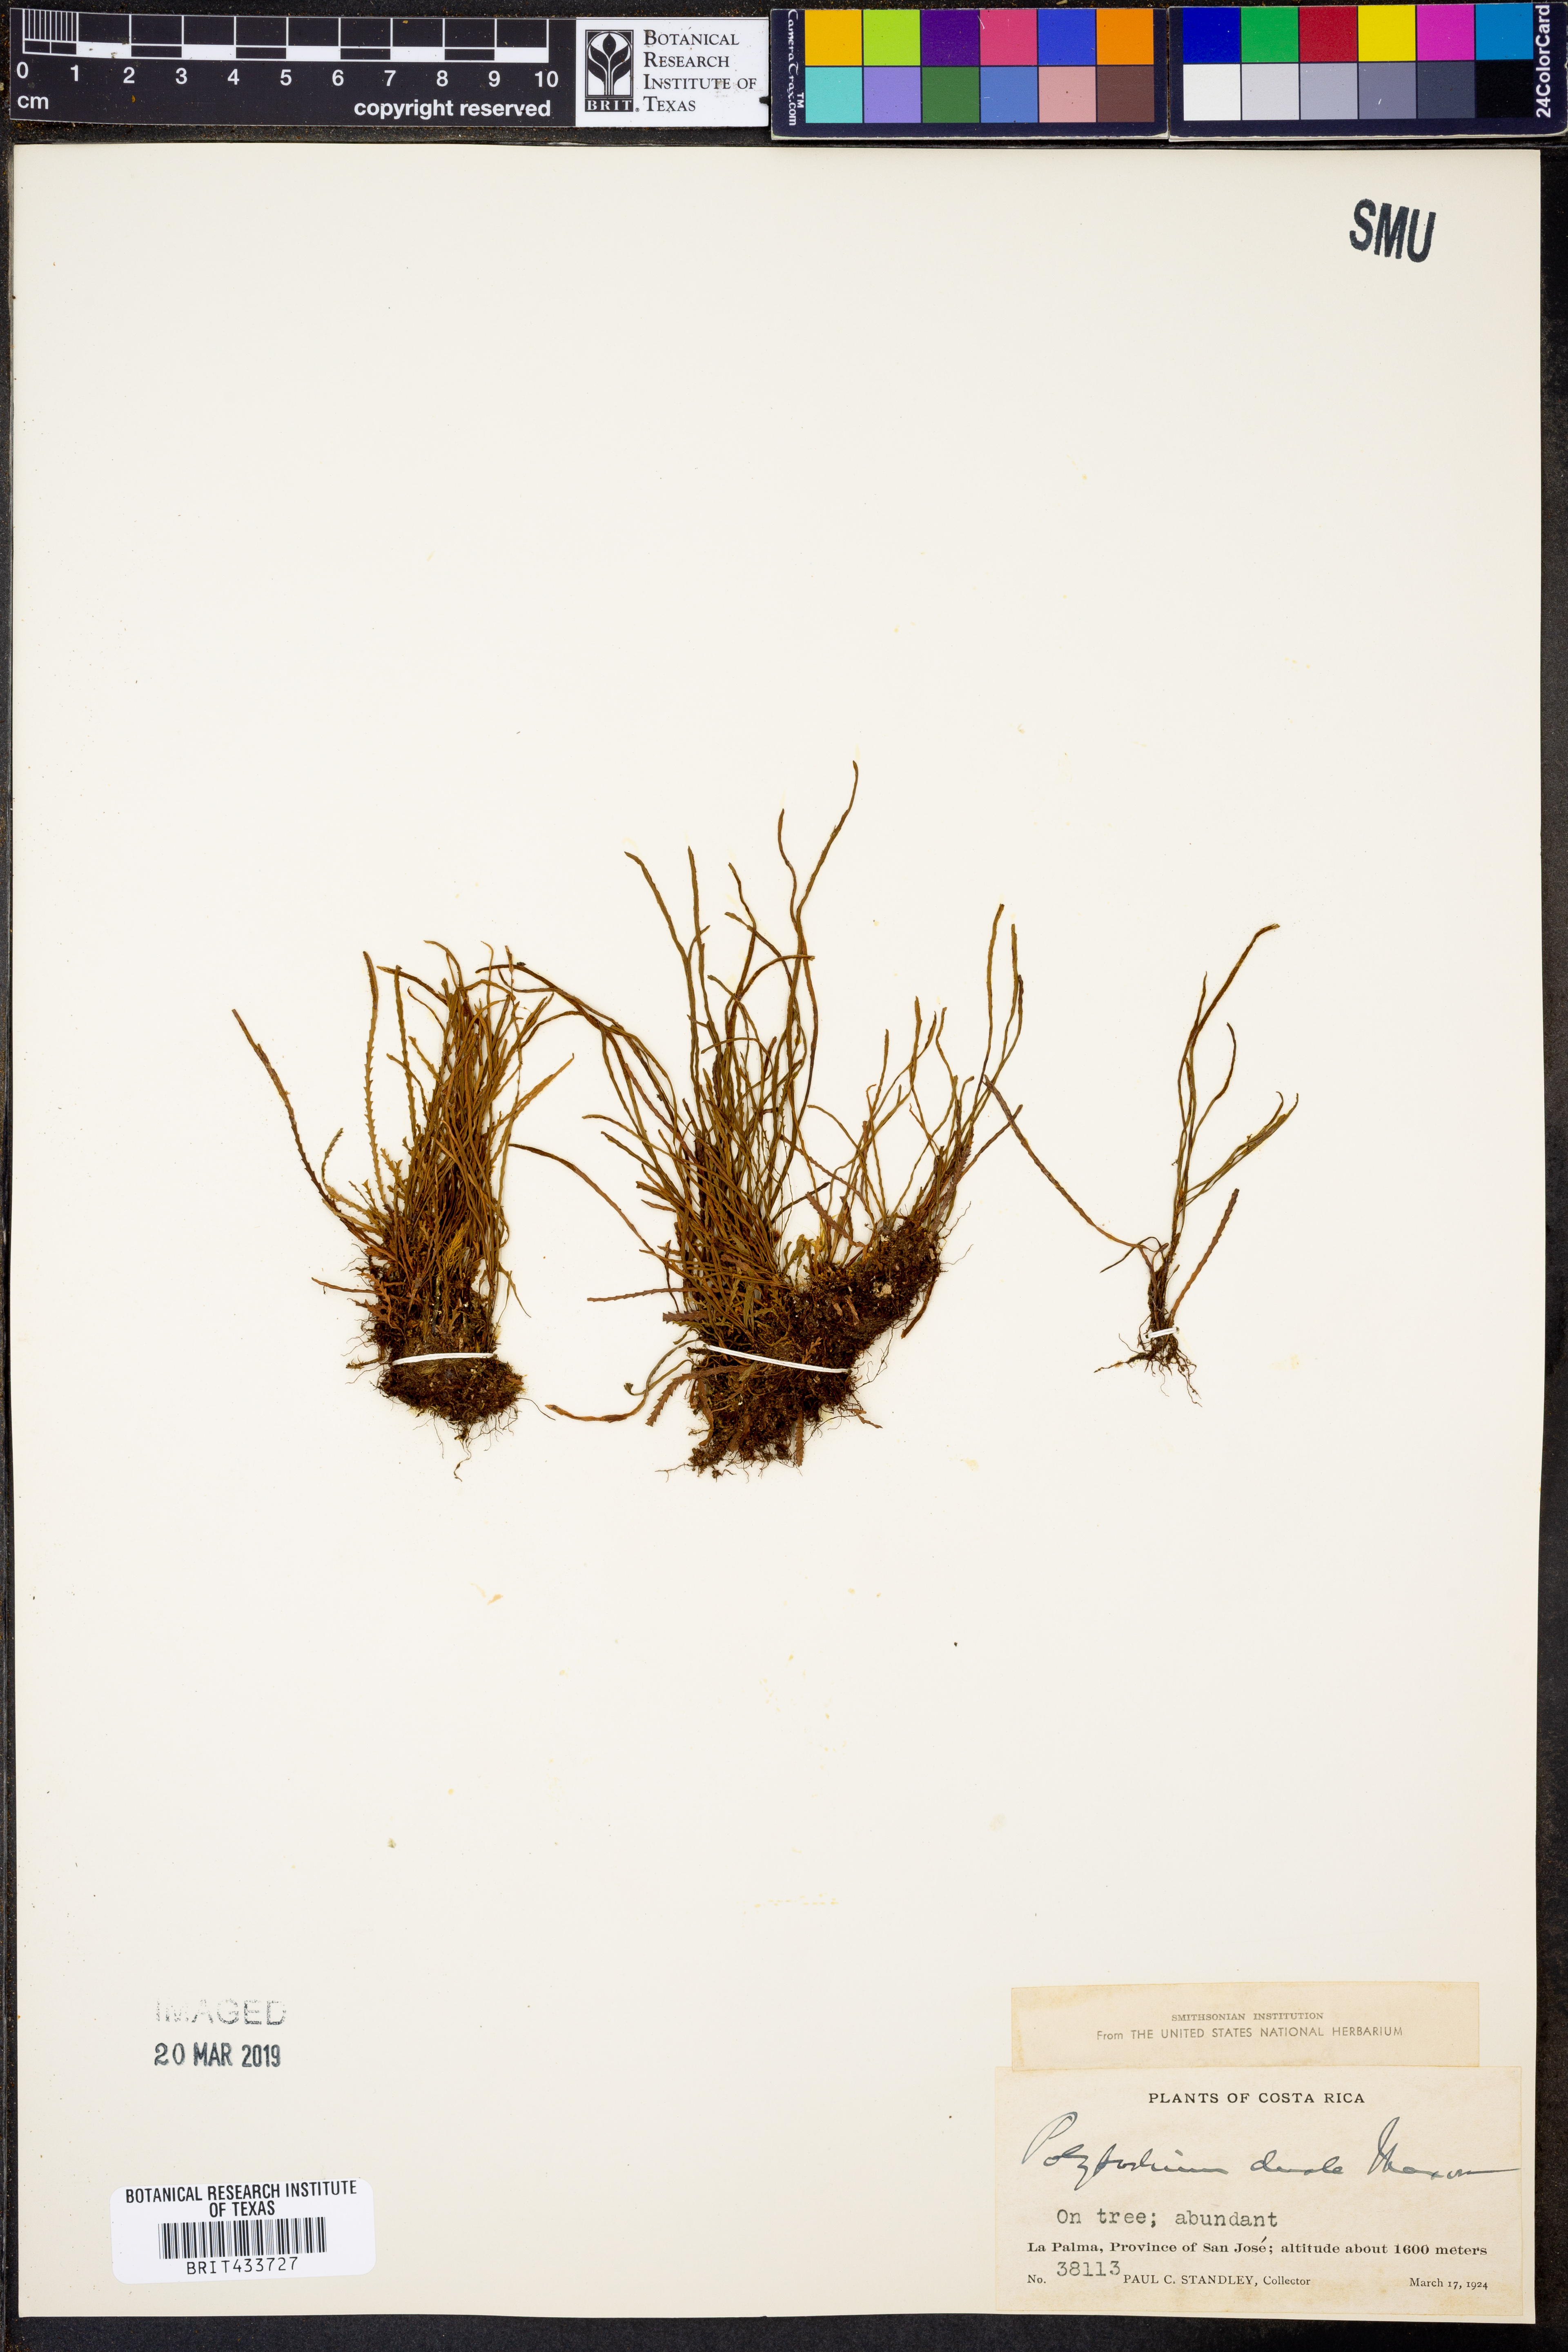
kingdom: Plantae
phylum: Tracheophyta
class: Polypodiopsida
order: Polypodiales
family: Polypodiaceae
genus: Cochlidium
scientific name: Cochlidium serrulatum
